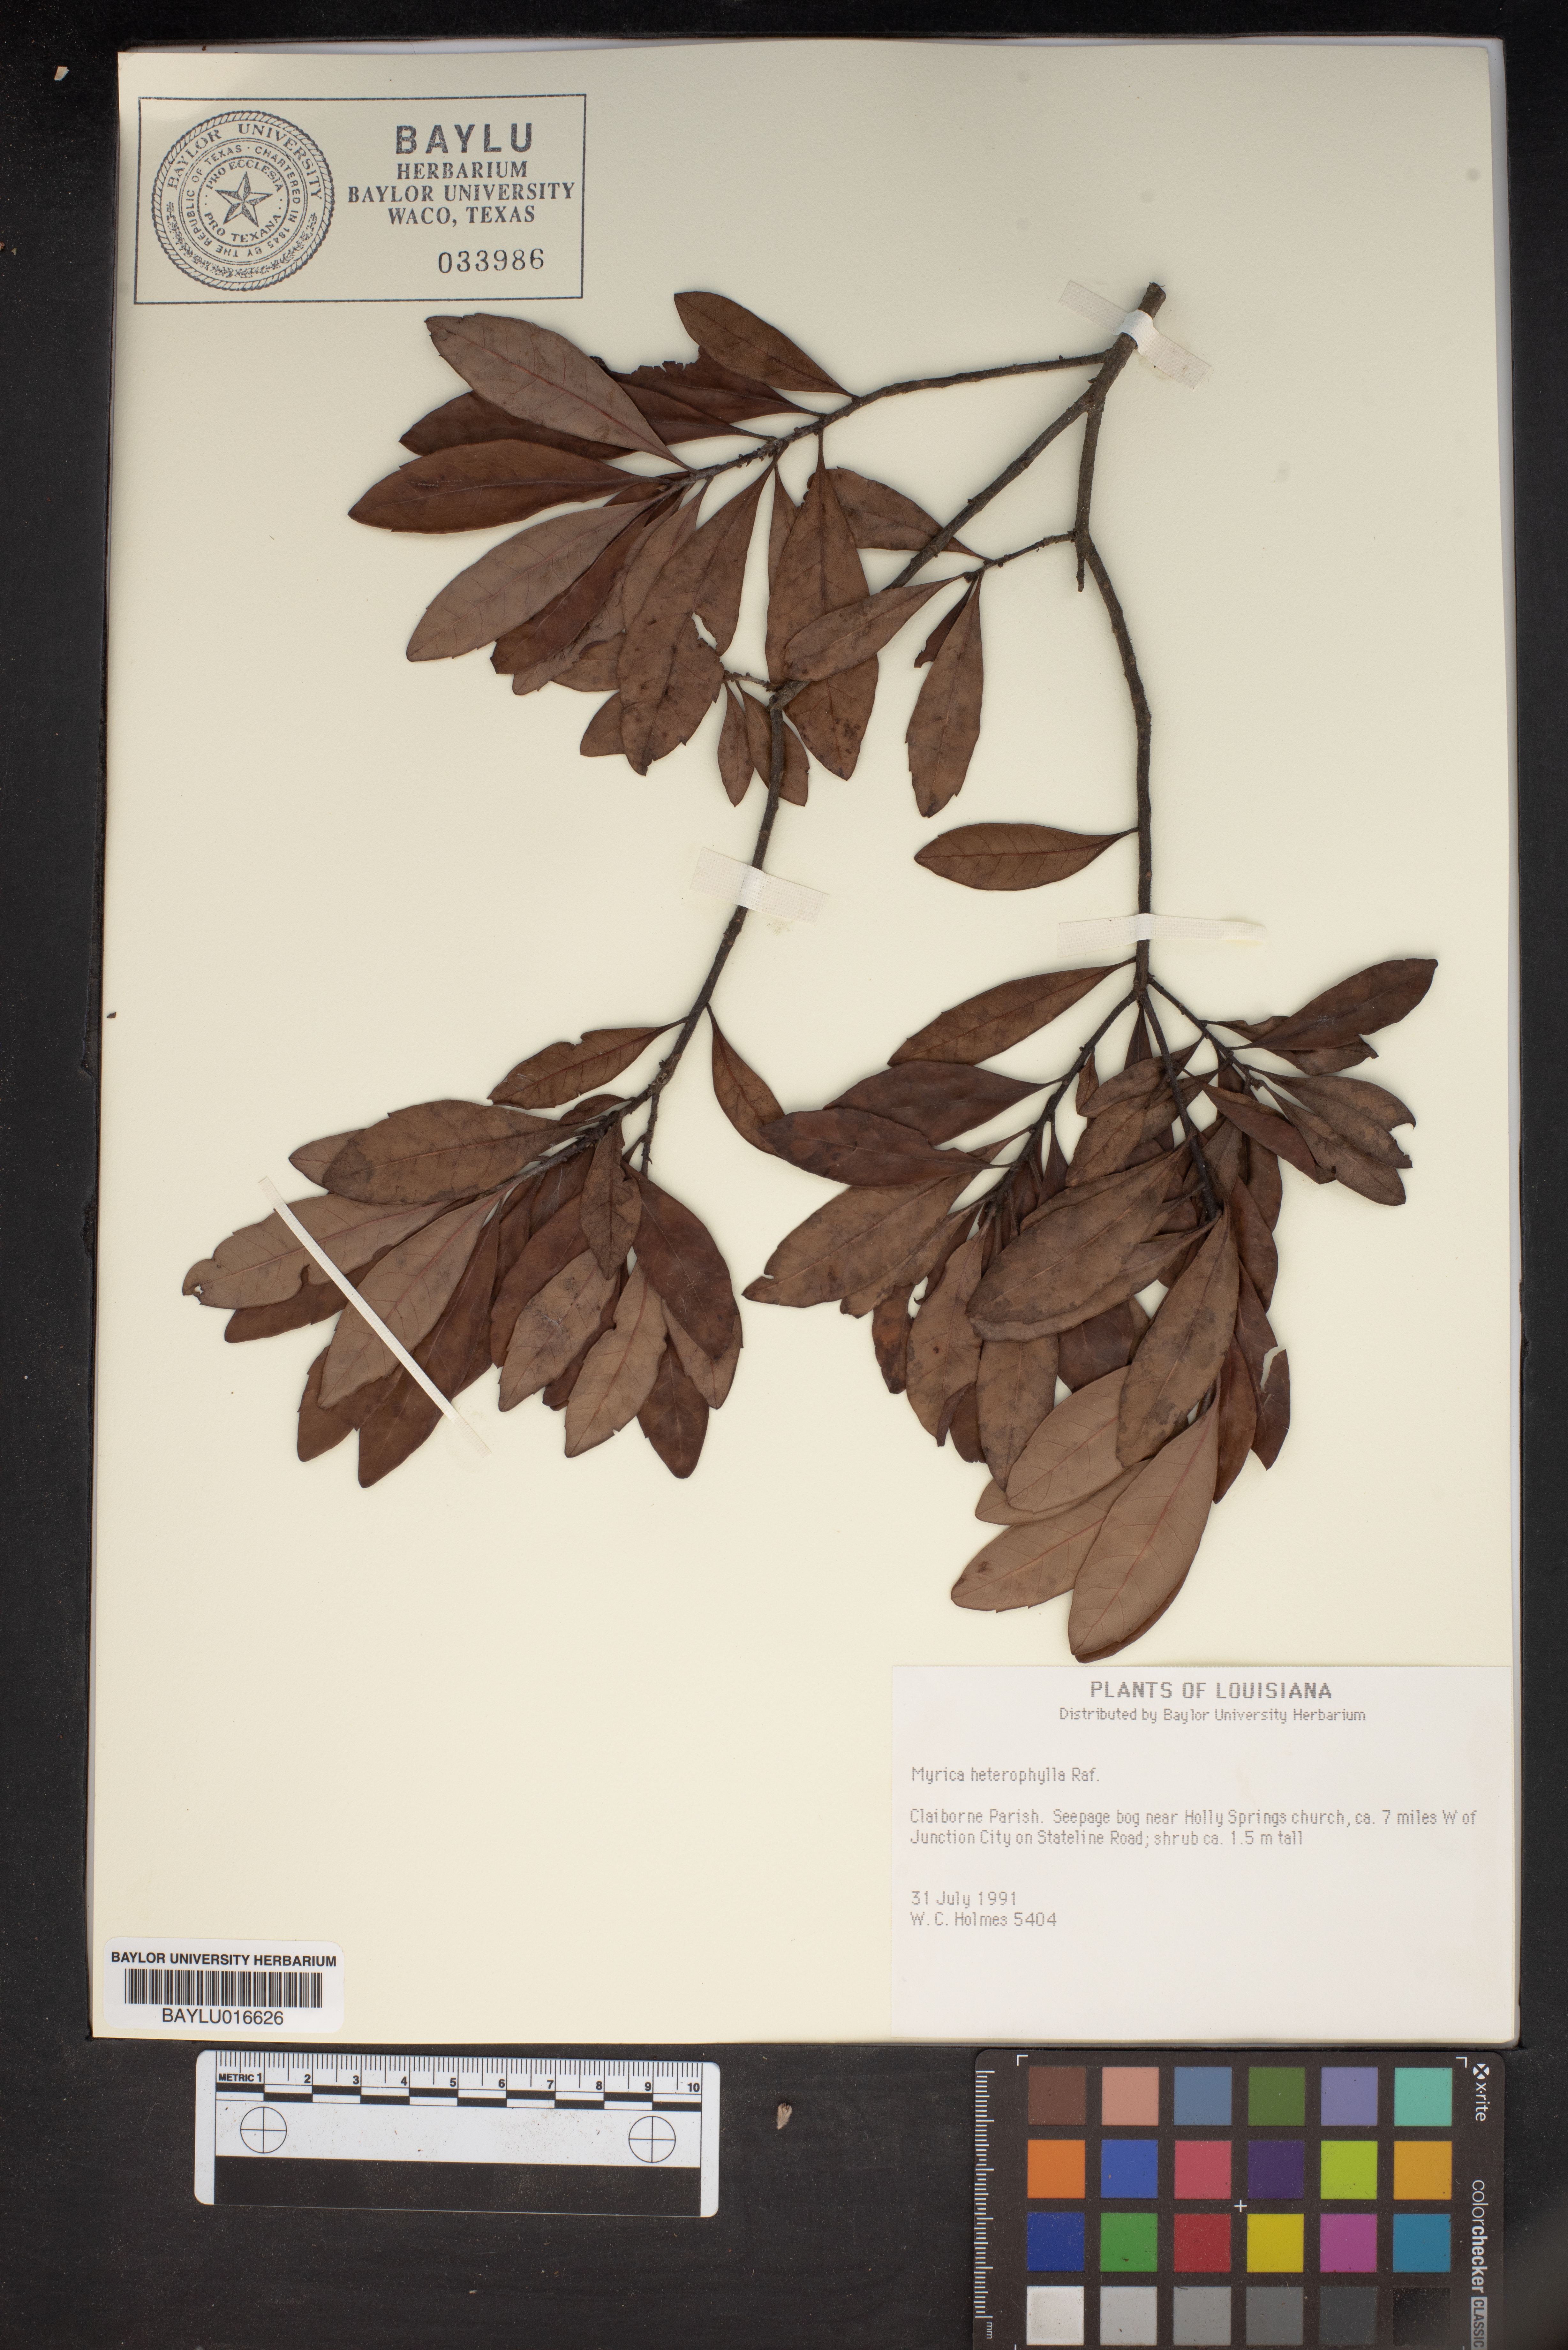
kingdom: Plantae
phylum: Tracheophyta
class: Magnoliopsida
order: Fagales
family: Myricaceae
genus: Morella
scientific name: Morella caroliniensis
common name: Evergreen bayberry
